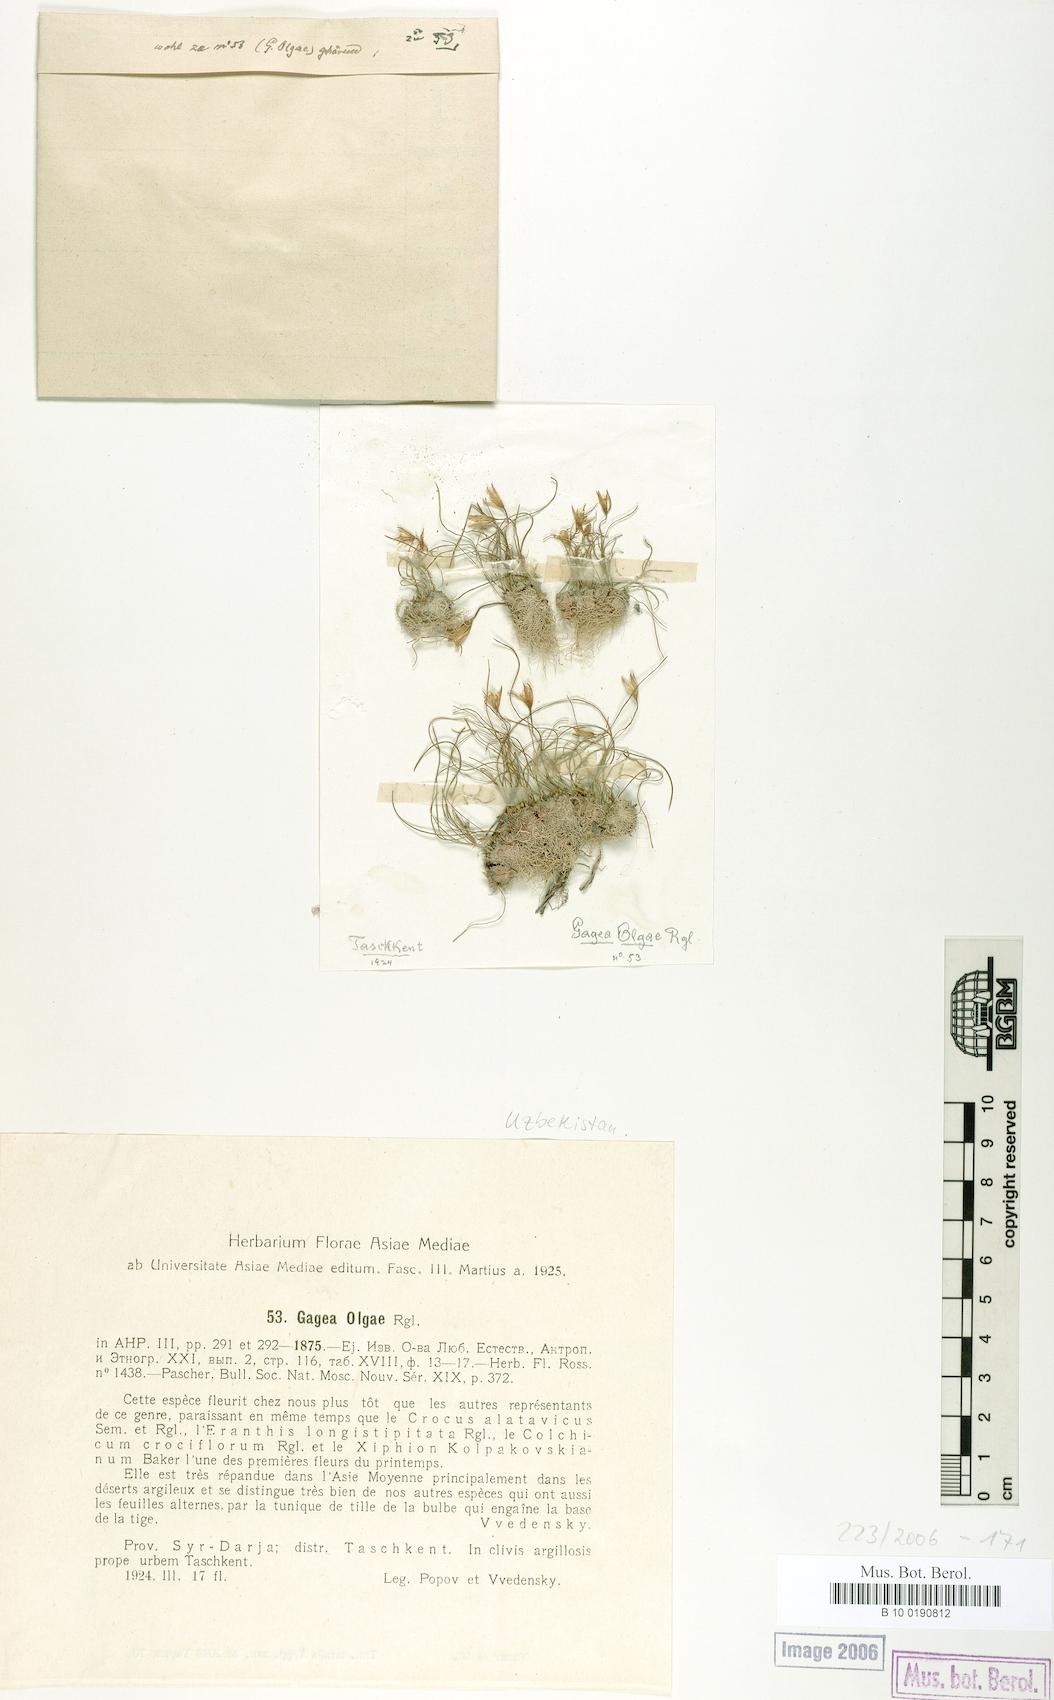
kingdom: Plantae
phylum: Tracheophyta
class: Liliopsida
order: Liliales
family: Liliaceae
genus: Gagea
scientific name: Gagea olgae
